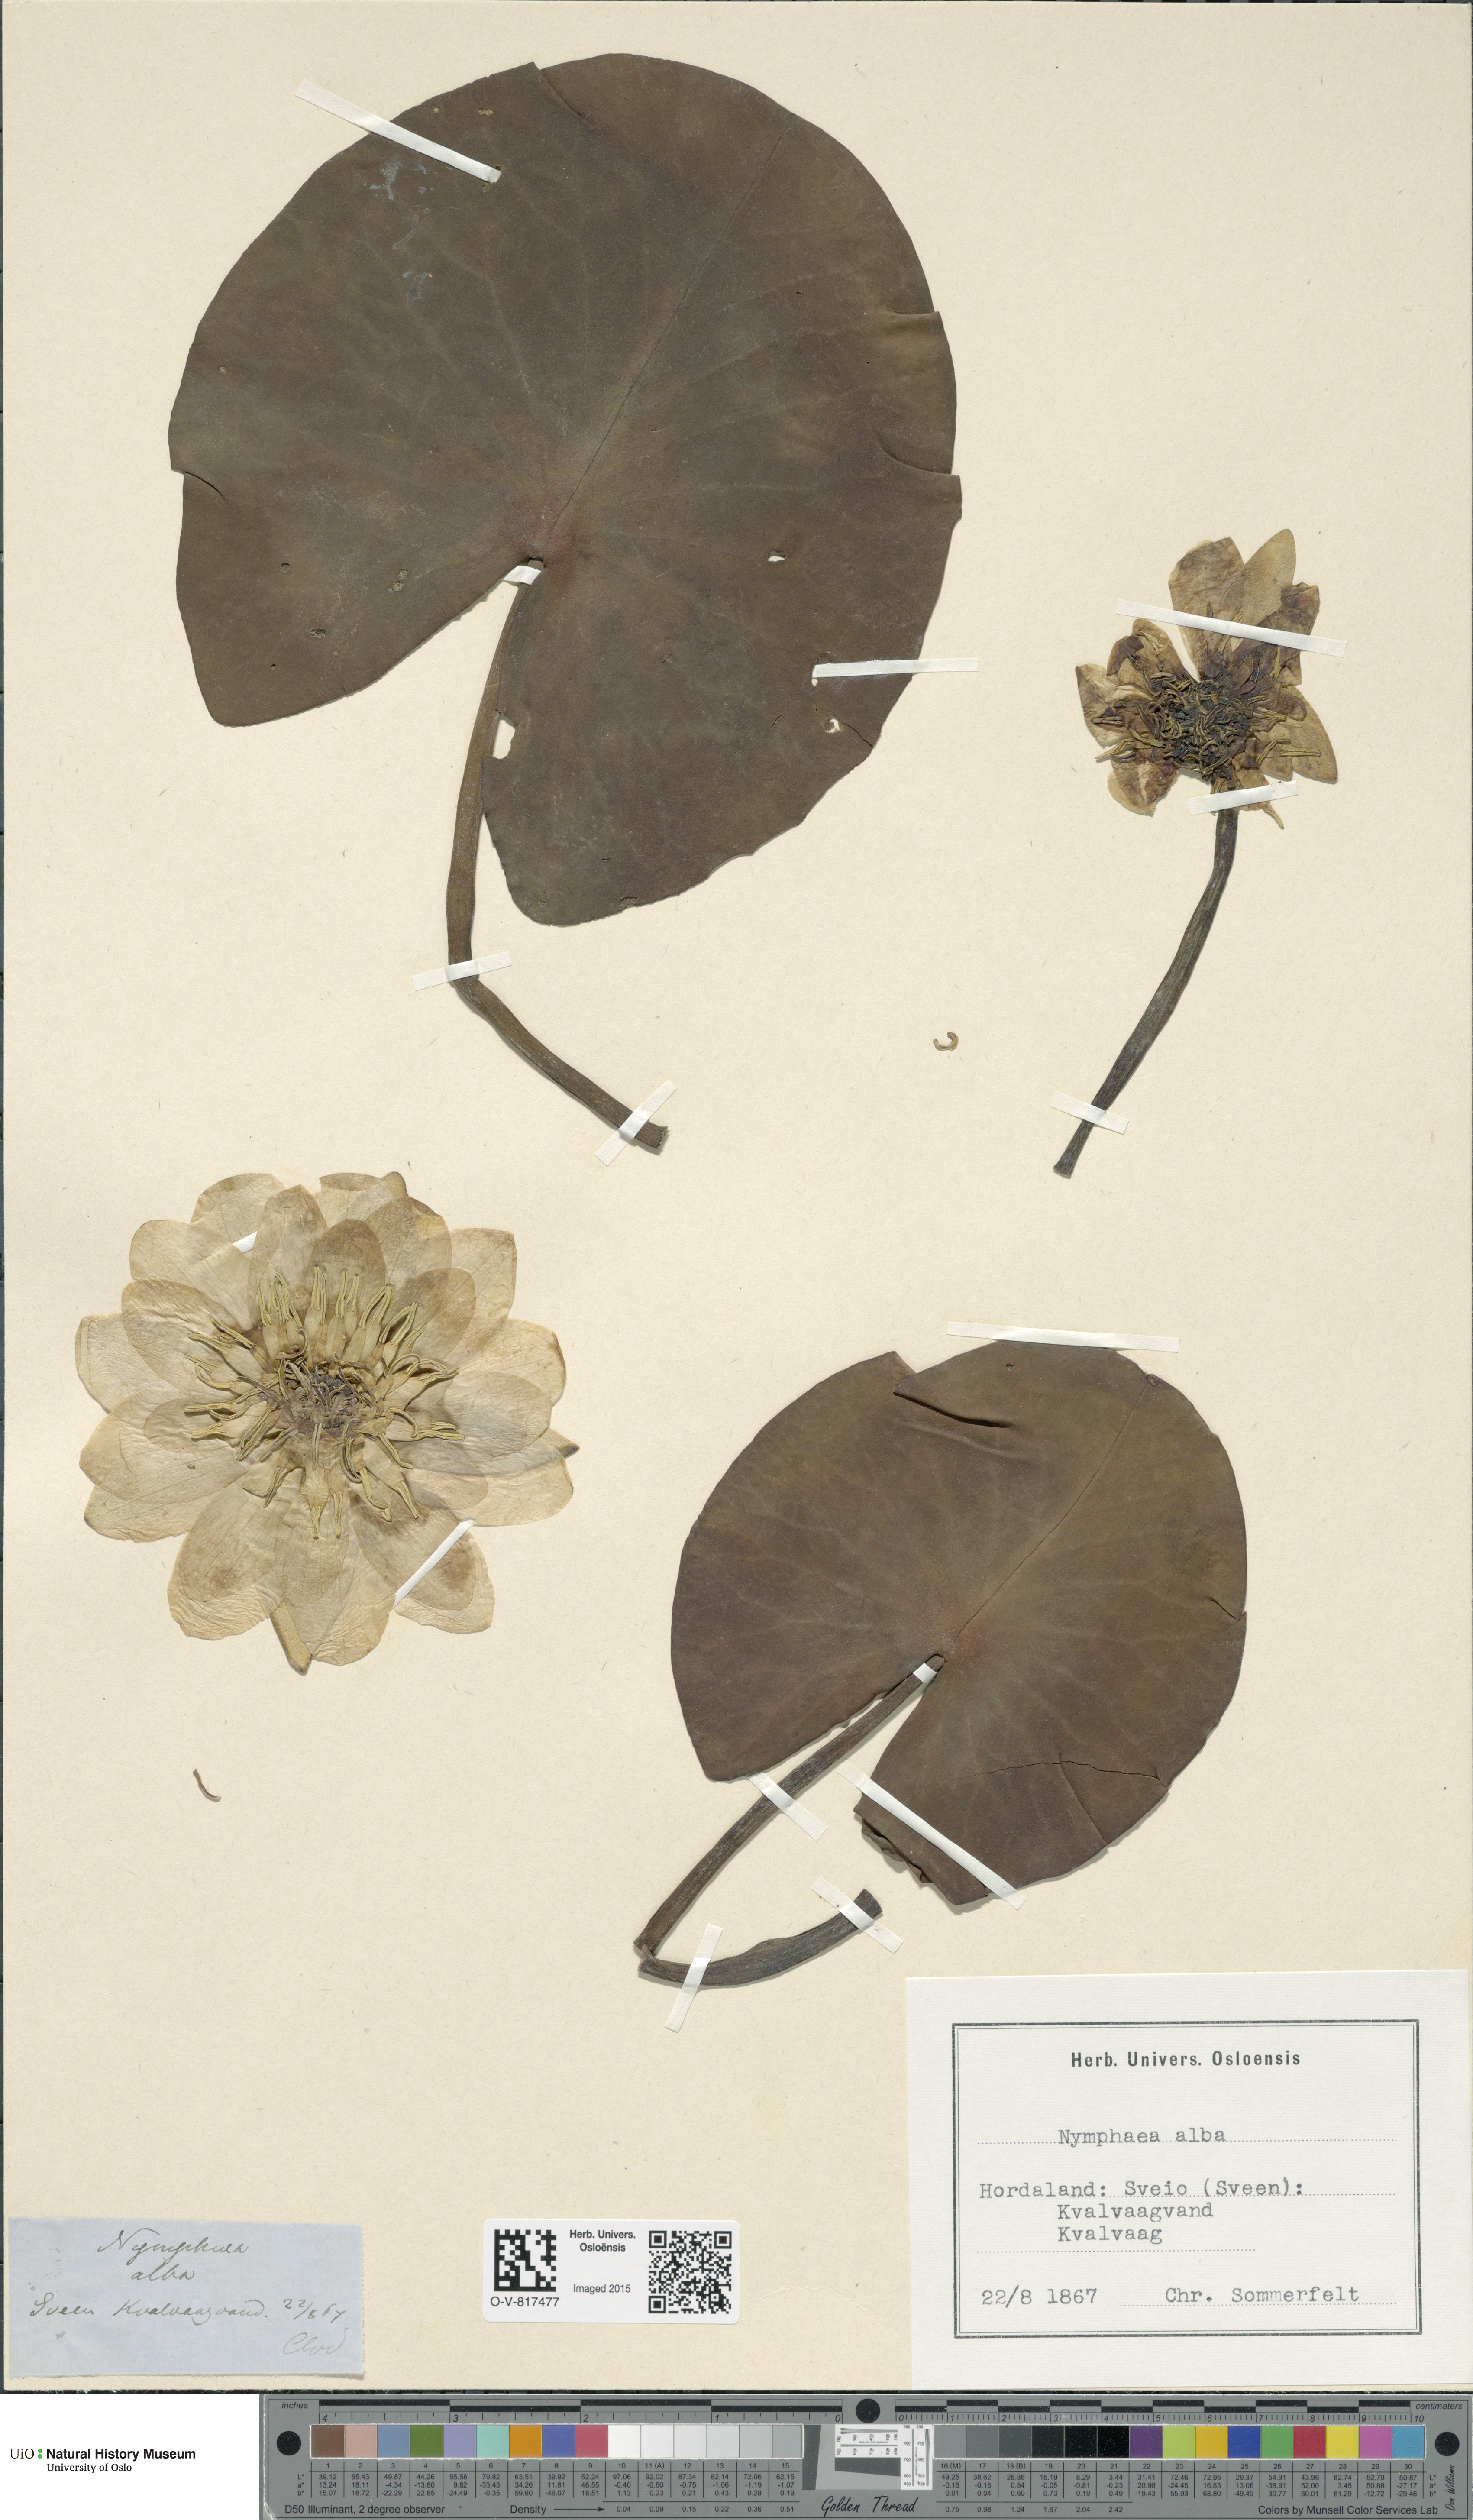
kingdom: Plantae
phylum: Tracheophyta
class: Magnoliopsida
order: Nymphaeales
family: Nymphaeaceae
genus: Nymphaea
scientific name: Nymphaea alba
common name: White water-lily
